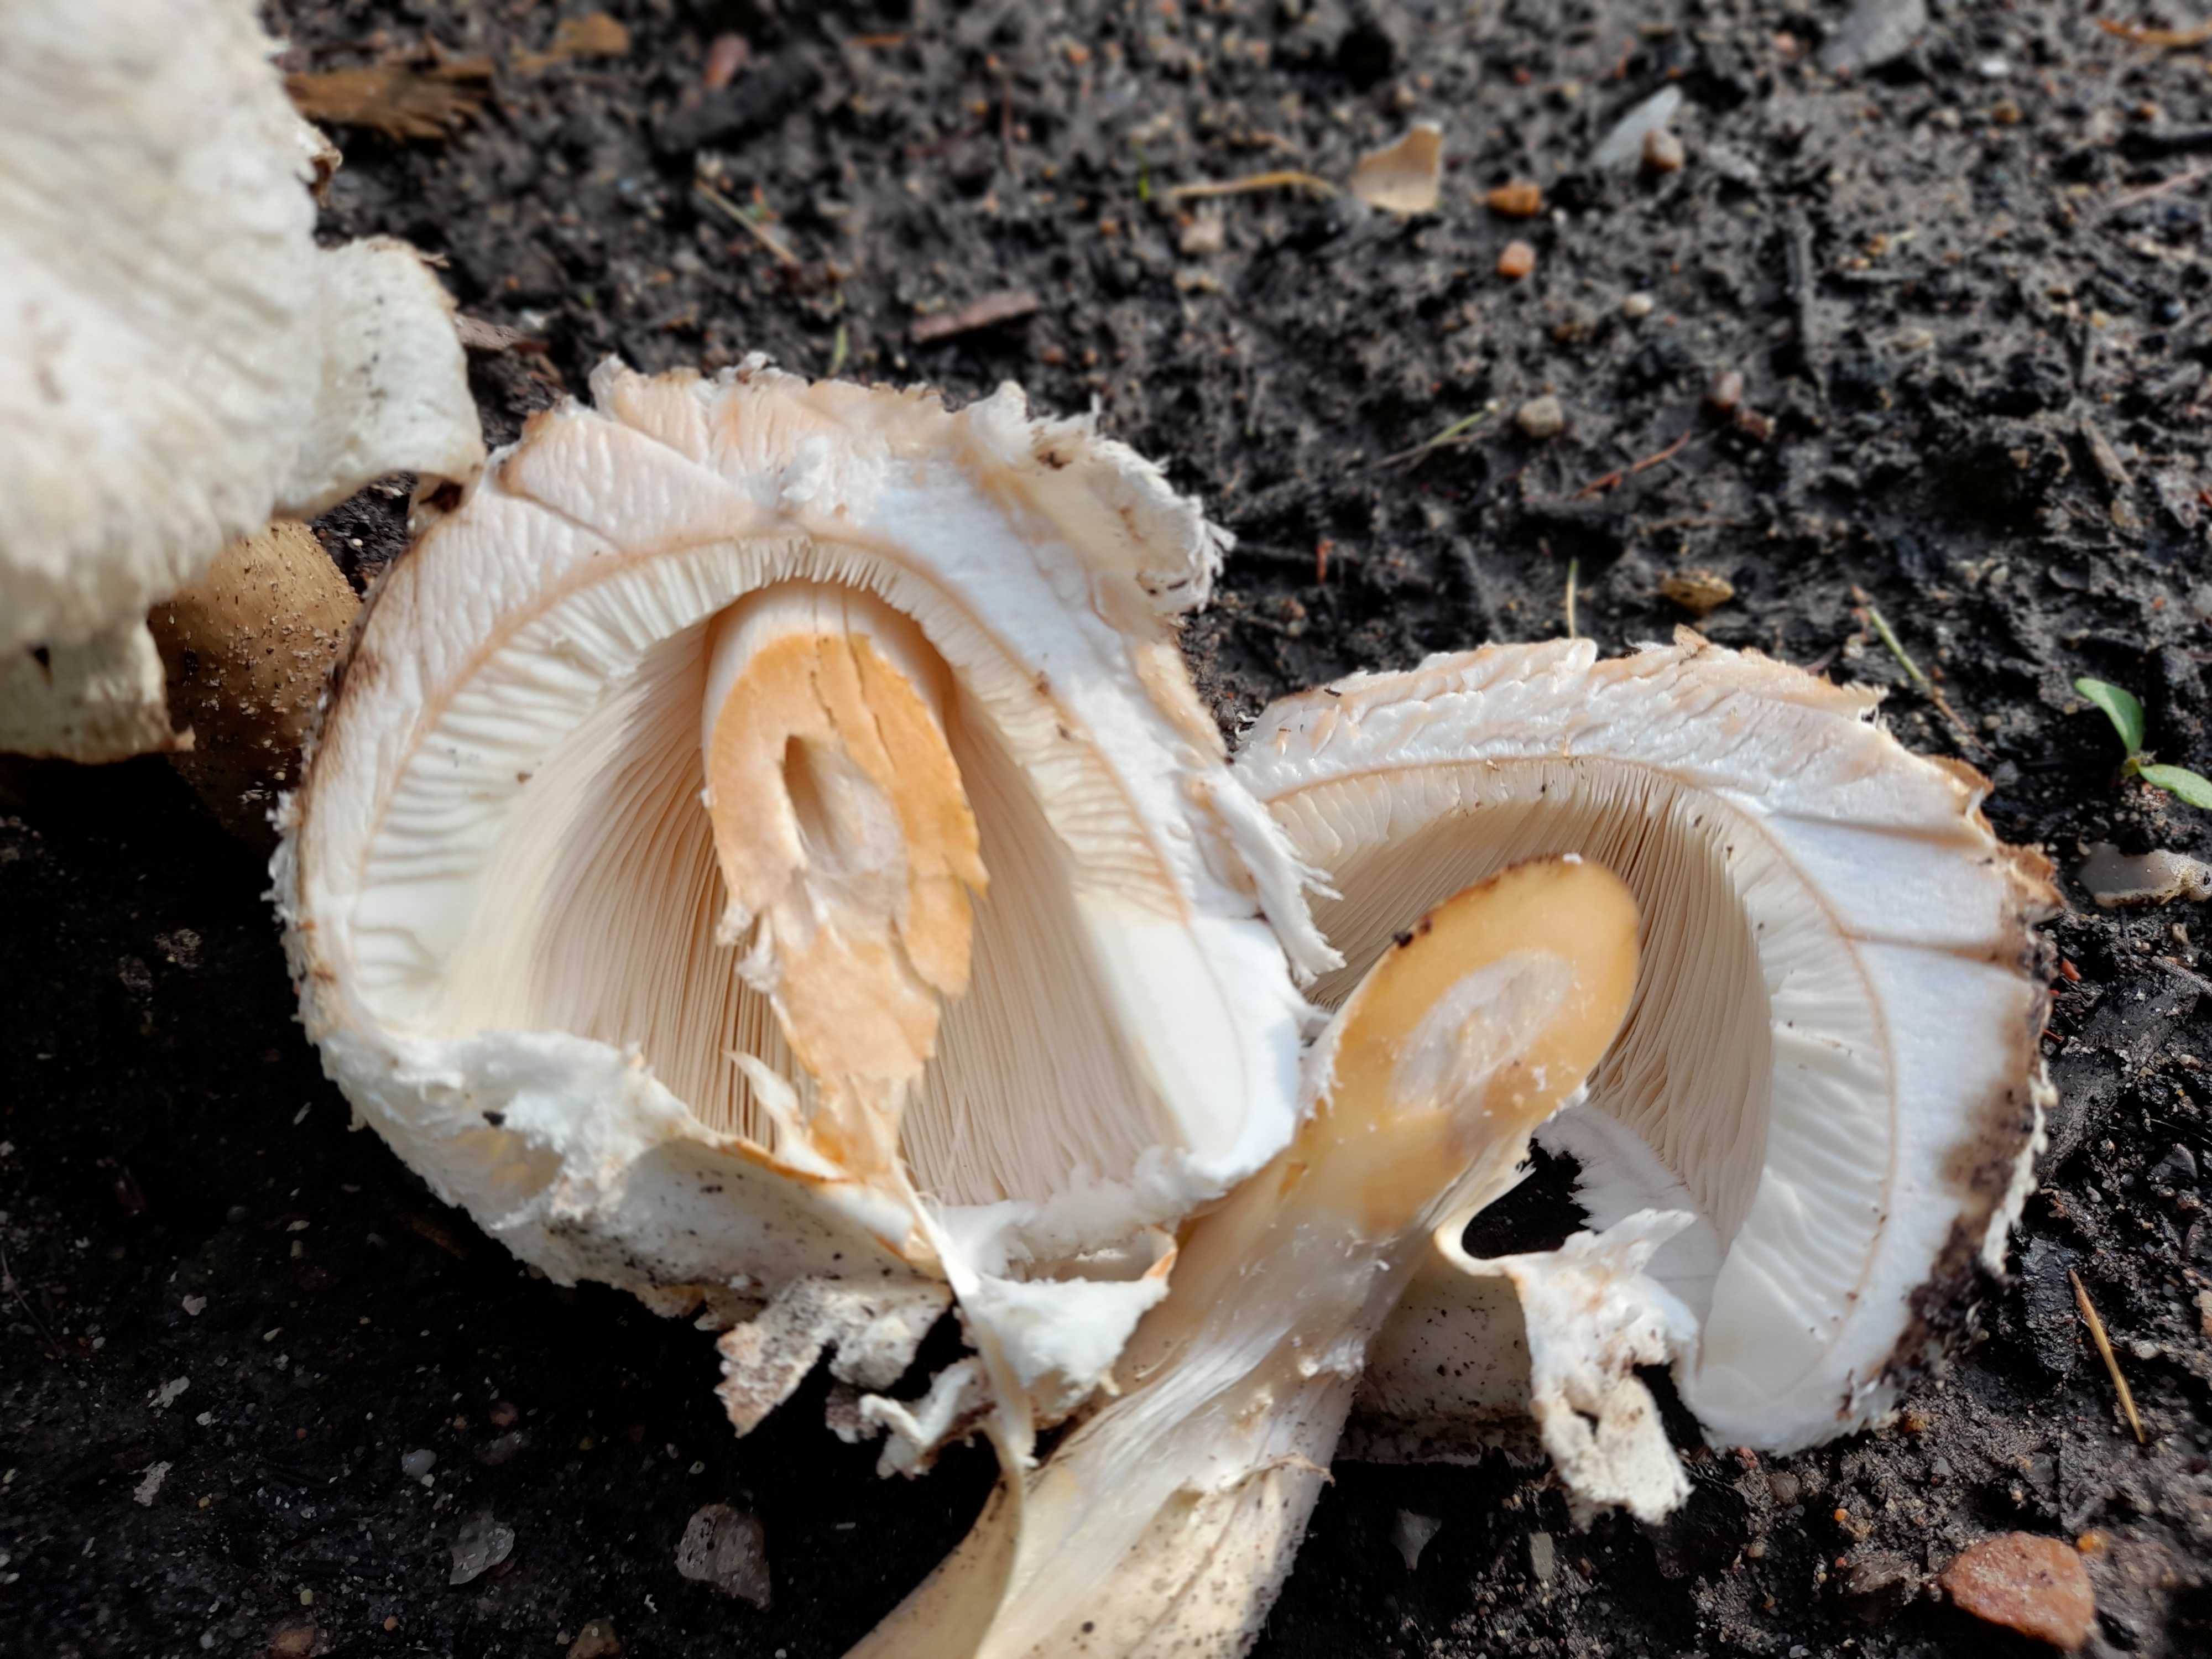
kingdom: Fungi
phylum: Basidiomycota
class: Agaricomycetes
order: Agaricales
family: Agaricaceae
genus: Chlorophyllum
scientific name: Chlorophyllum brunneum
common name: giftig rabarberhat
